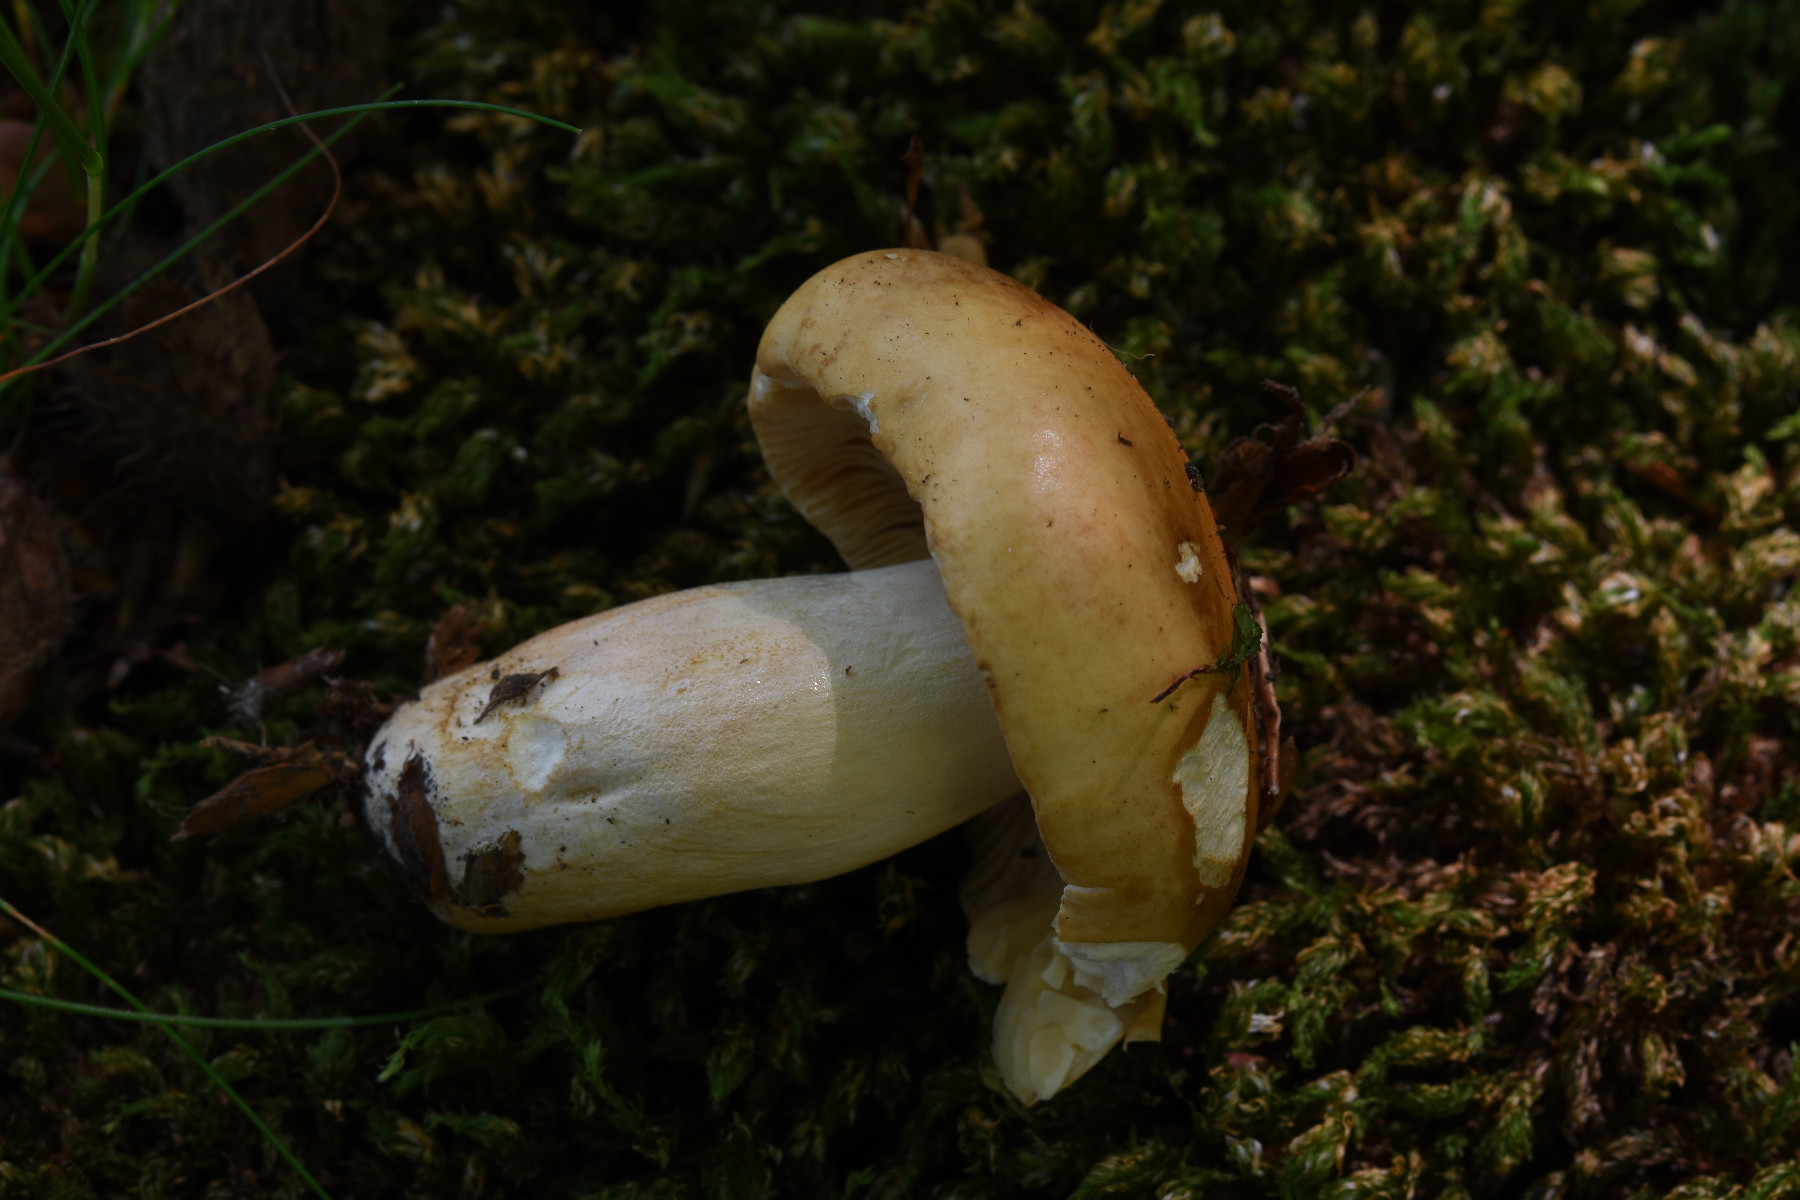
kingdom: Fungi
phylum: Basidiomycota
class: Agaricomycetes
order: Russulales
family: Russulaceae
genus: Russula
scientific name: Russula fellea
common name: galde-skørhat
